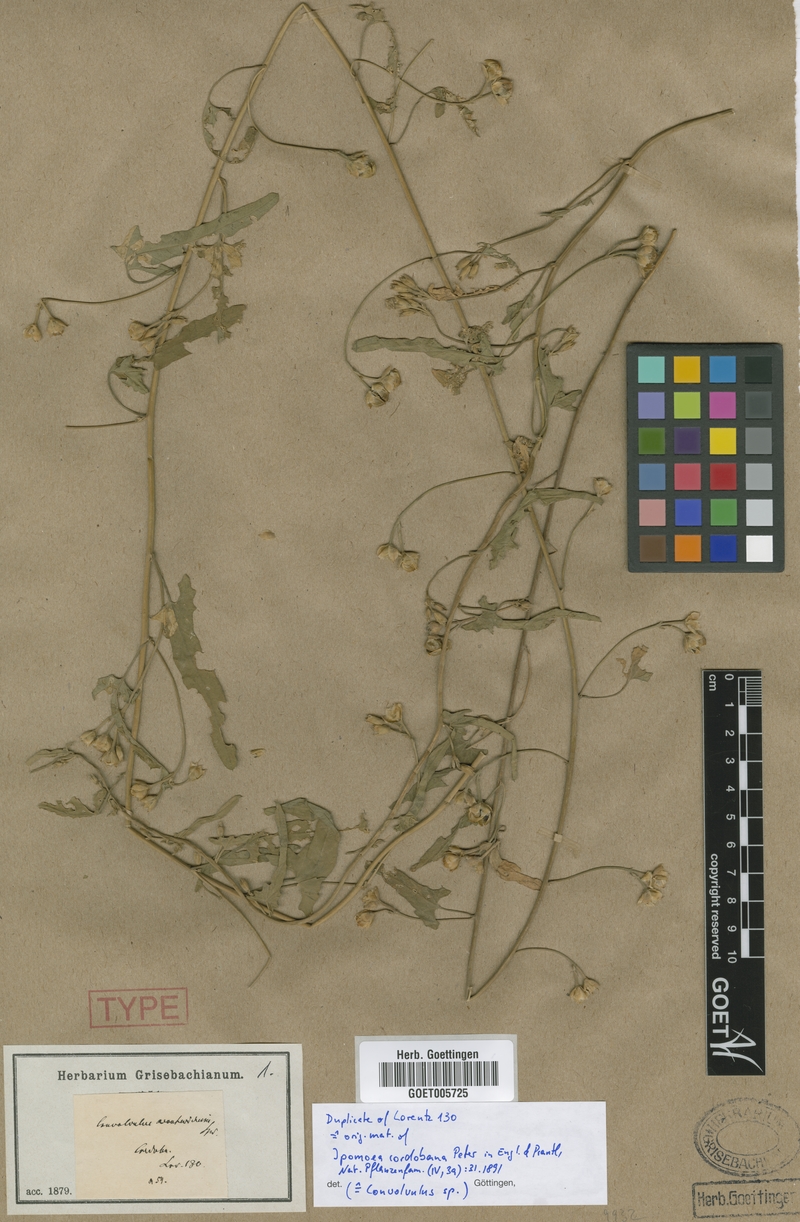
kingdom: Plantae
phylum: Tracheophyta
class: Magnoliopsida
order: Solanales
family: Convolvulaceae
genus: Convolvulus
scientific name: Convolvulus bonariensis
